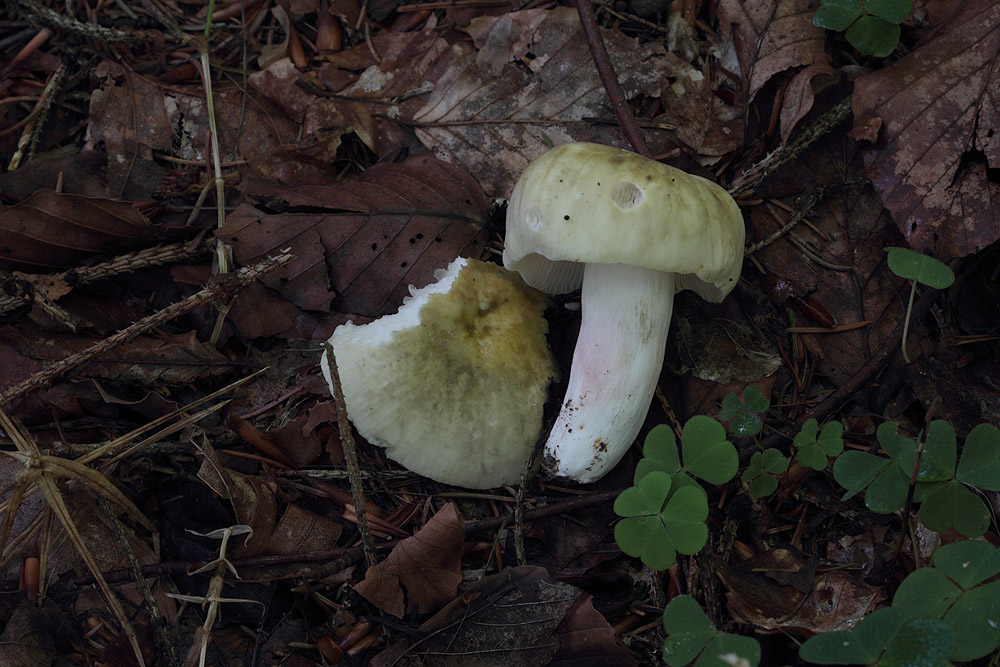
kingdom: Fungi
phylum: Basidiomycota
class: Agaricomycetes
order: Russulales
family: Russulaceae
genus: Russula
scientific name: Russula violeipes
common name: ferskengul skørhat
